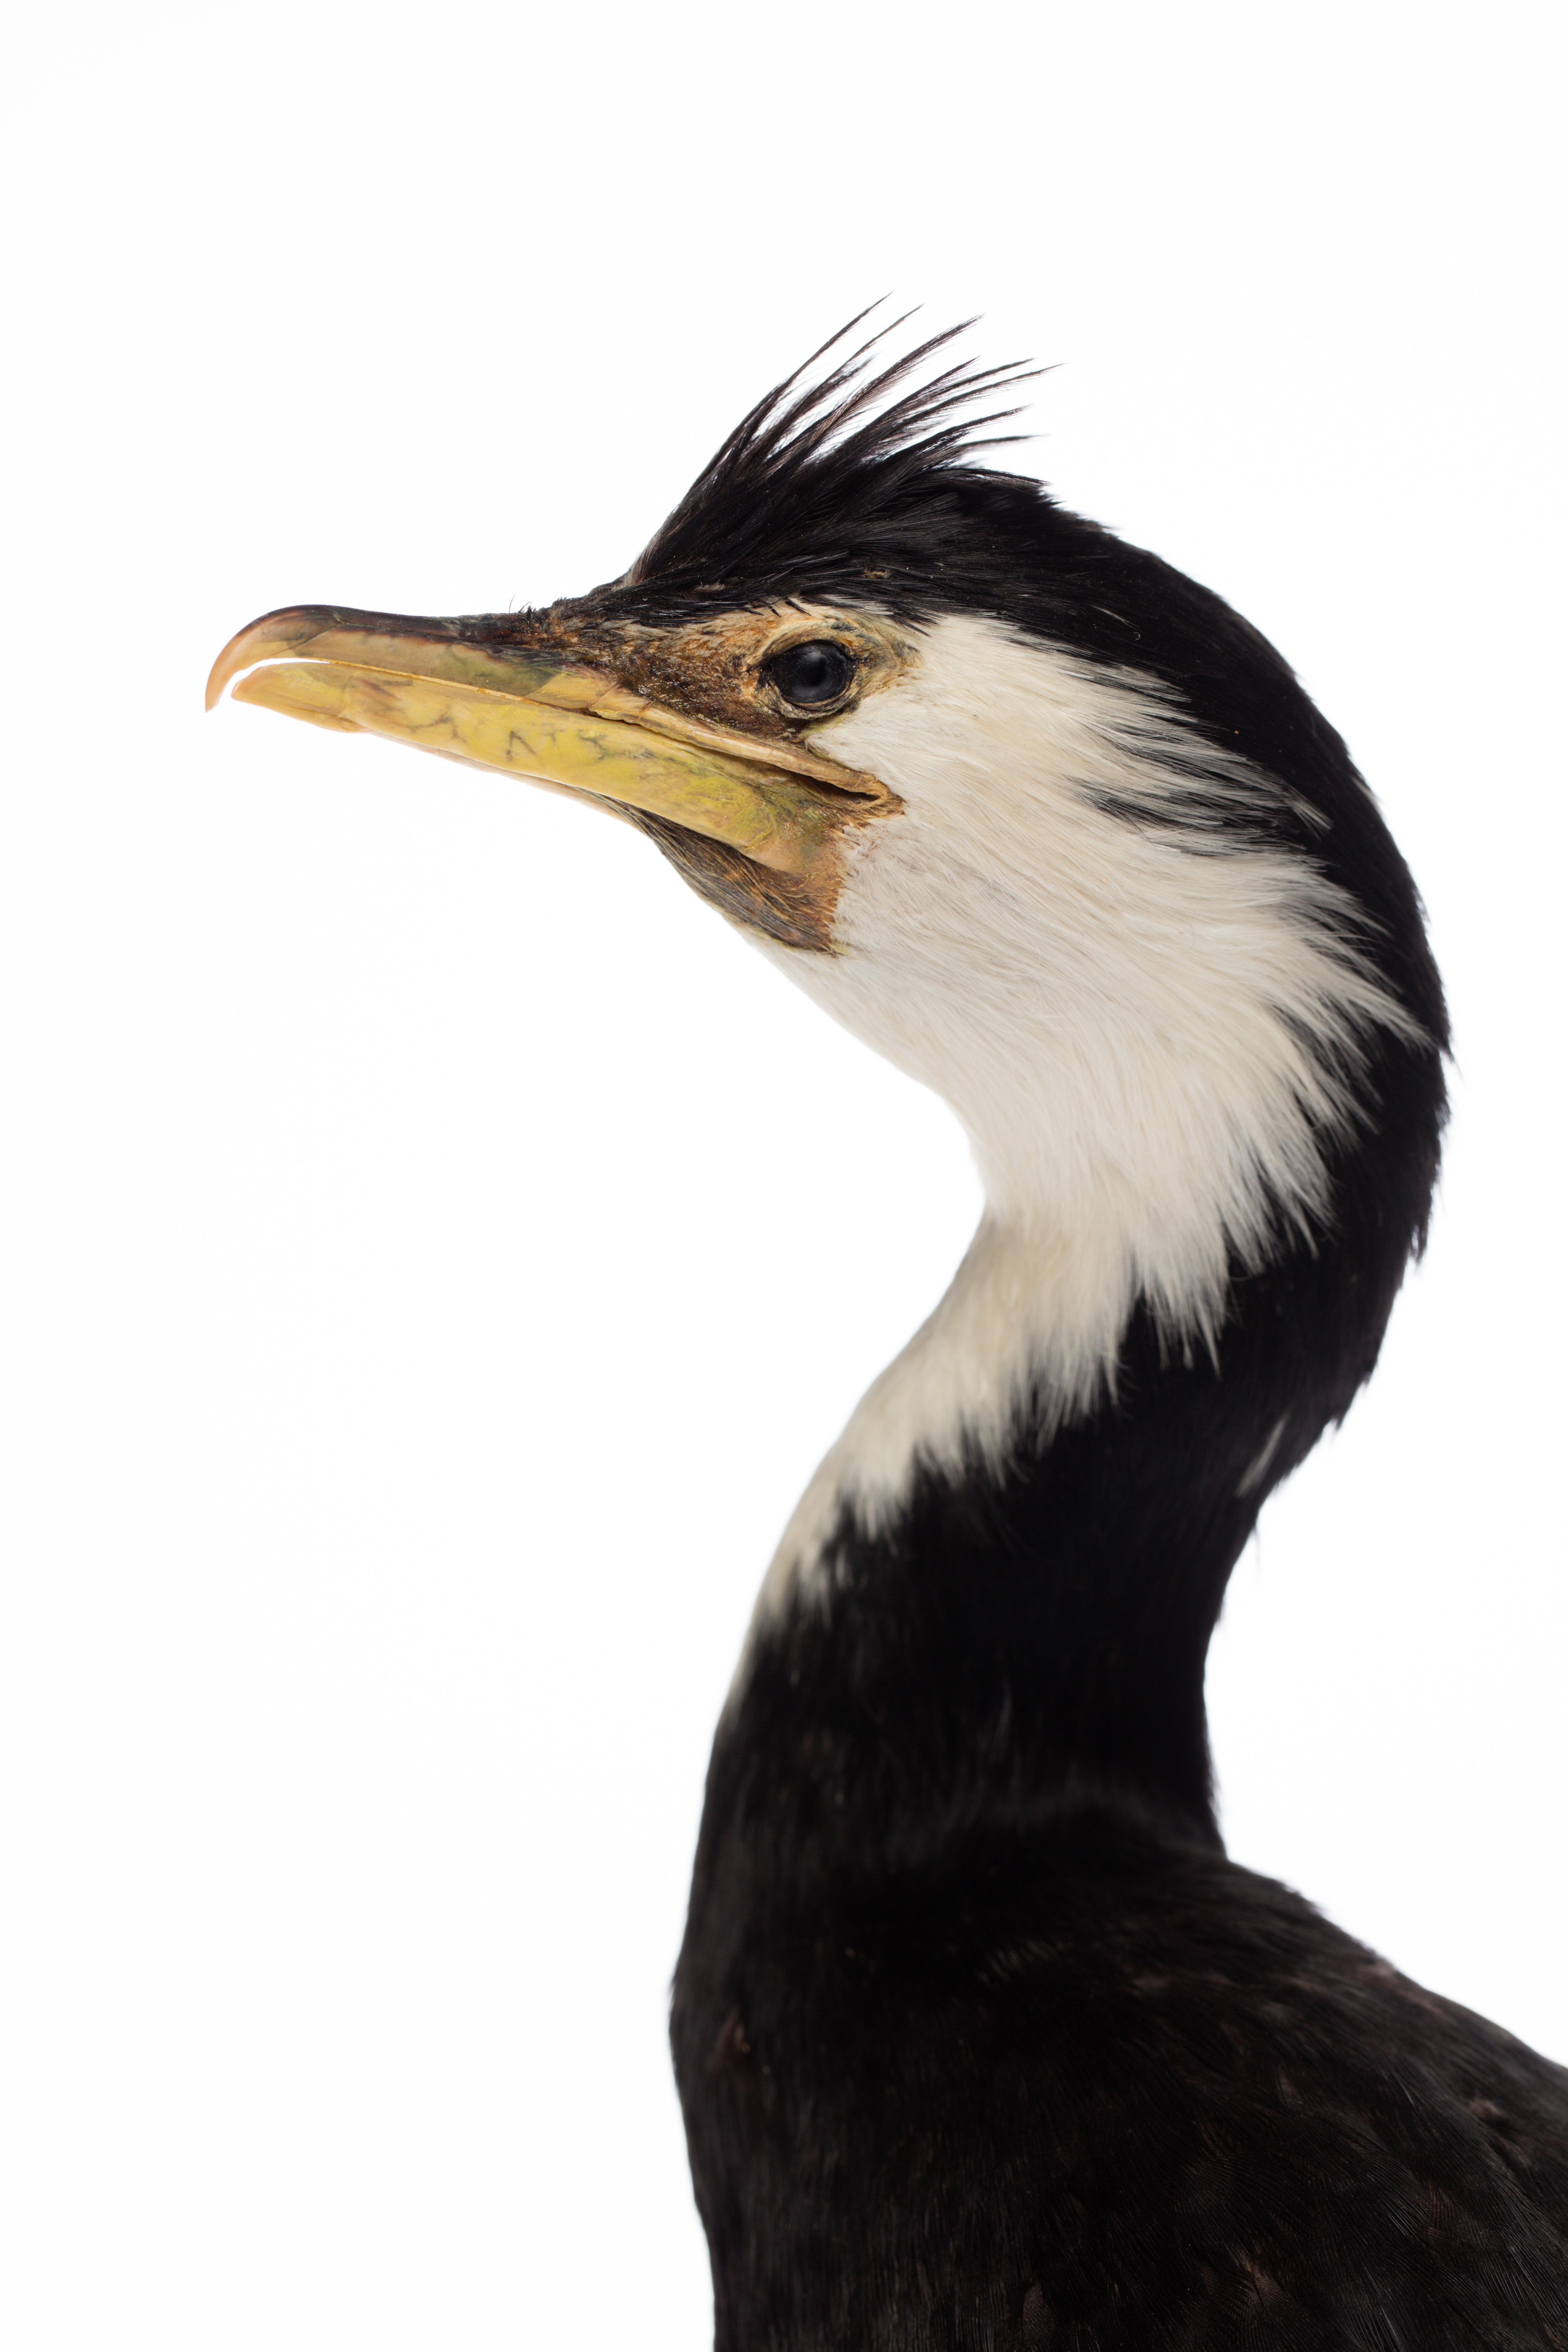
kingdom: Animalia
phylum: Chordata
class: Aves
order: Suliformes
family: Phalacrocoracidae
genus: Microcarbo
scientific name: Microcarbo melanoleucos
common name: Little pied cormorant
